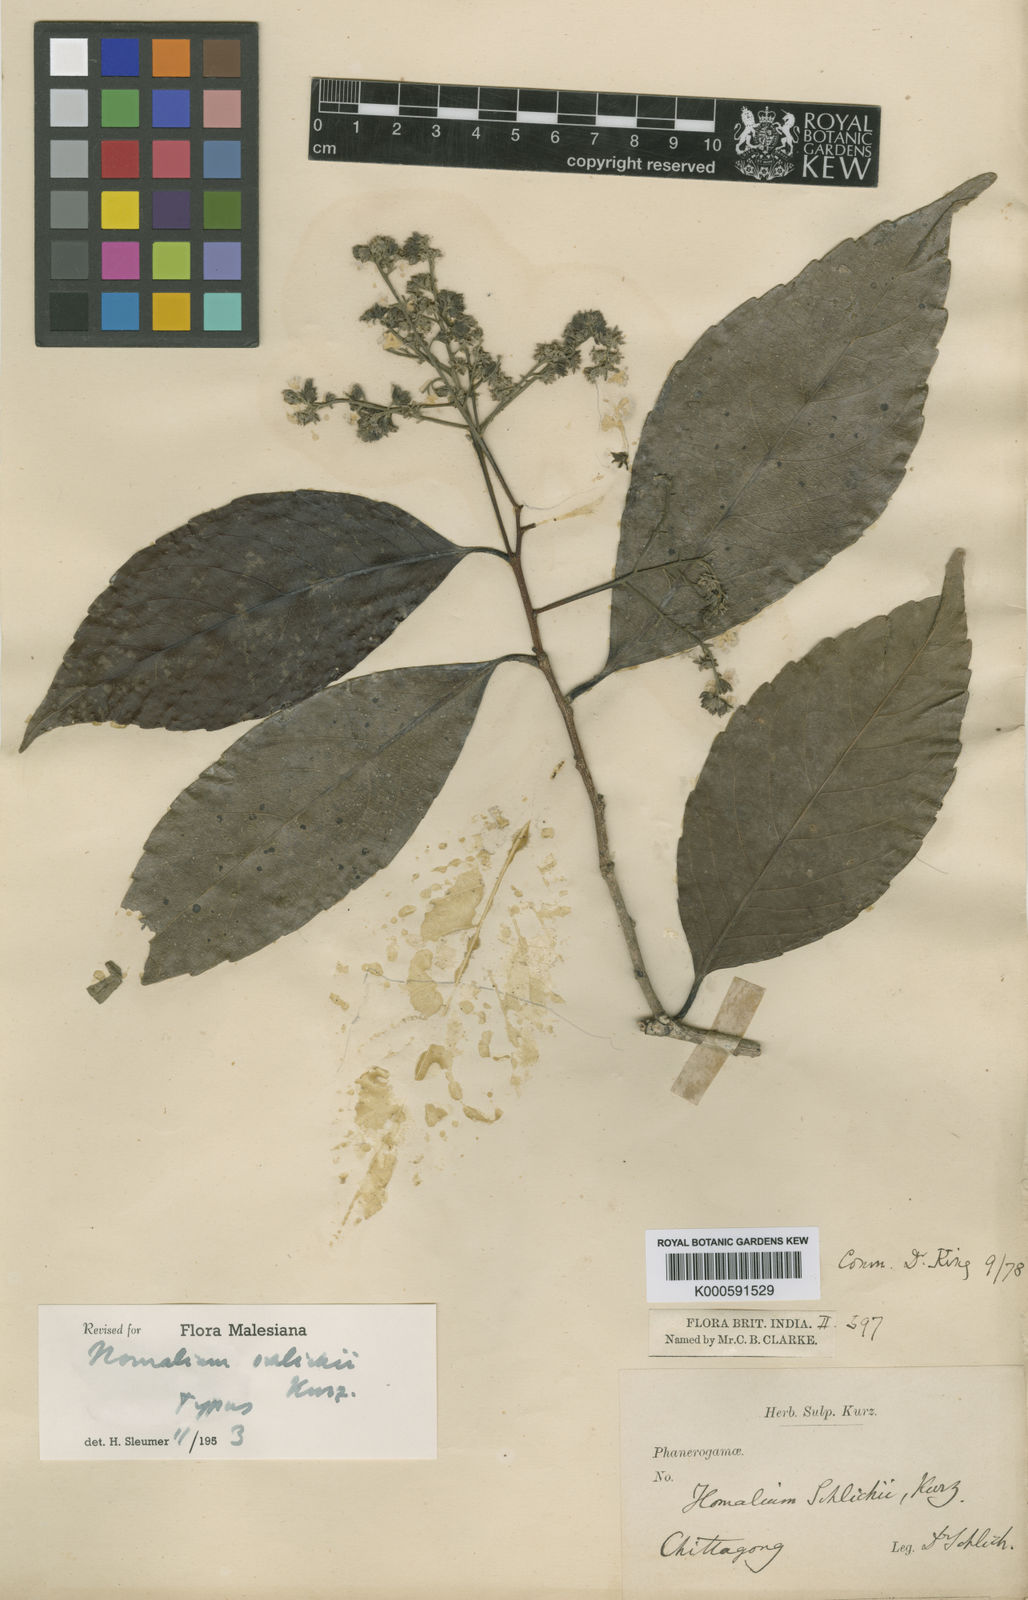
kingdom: Plantae
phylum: Tracheophyta
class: Magnoliopsida
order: Malpighiales
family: Salicaceae
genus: Homalium
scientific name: Homalium schlichii
